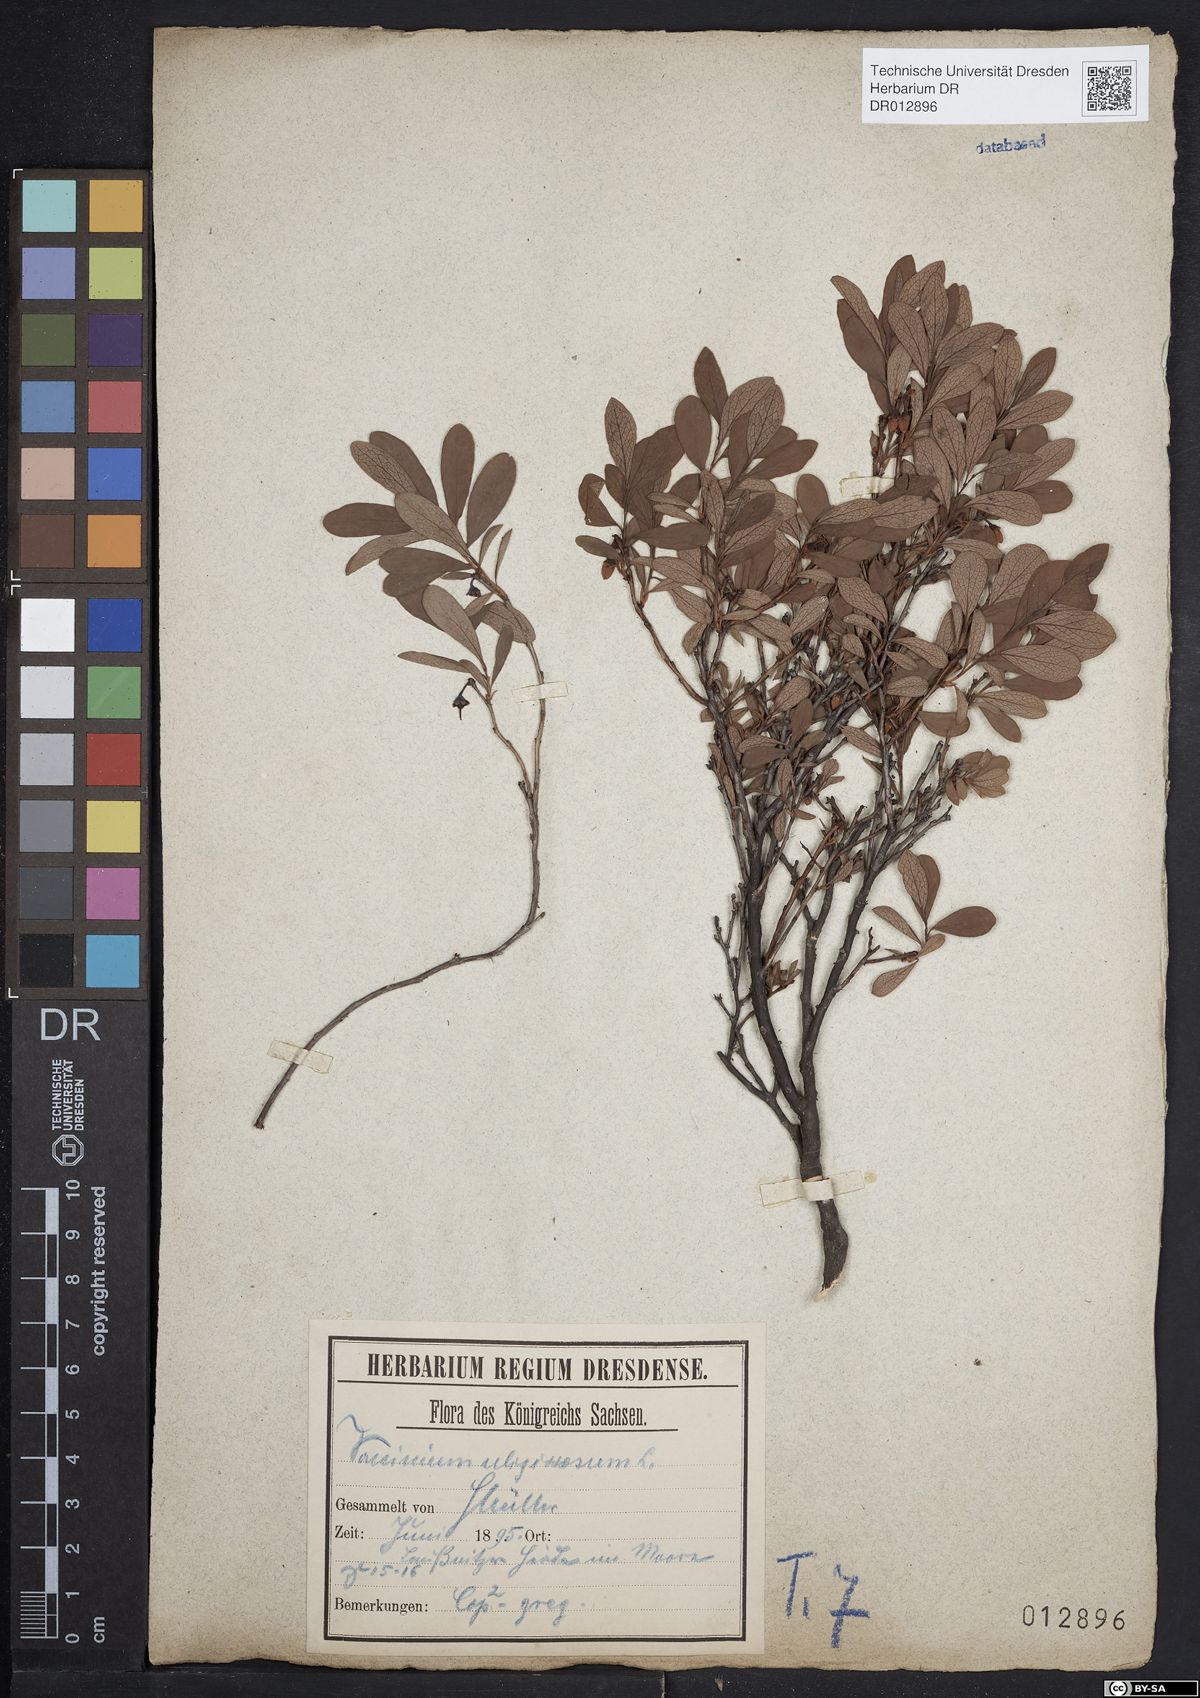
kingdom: Plantae
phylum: Tracheophyta
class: Magnoliopsida
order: Ericales
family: Ericaceae
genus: Vaccinium
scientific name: Vaccinium uliginosum
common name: Bog bilberry
